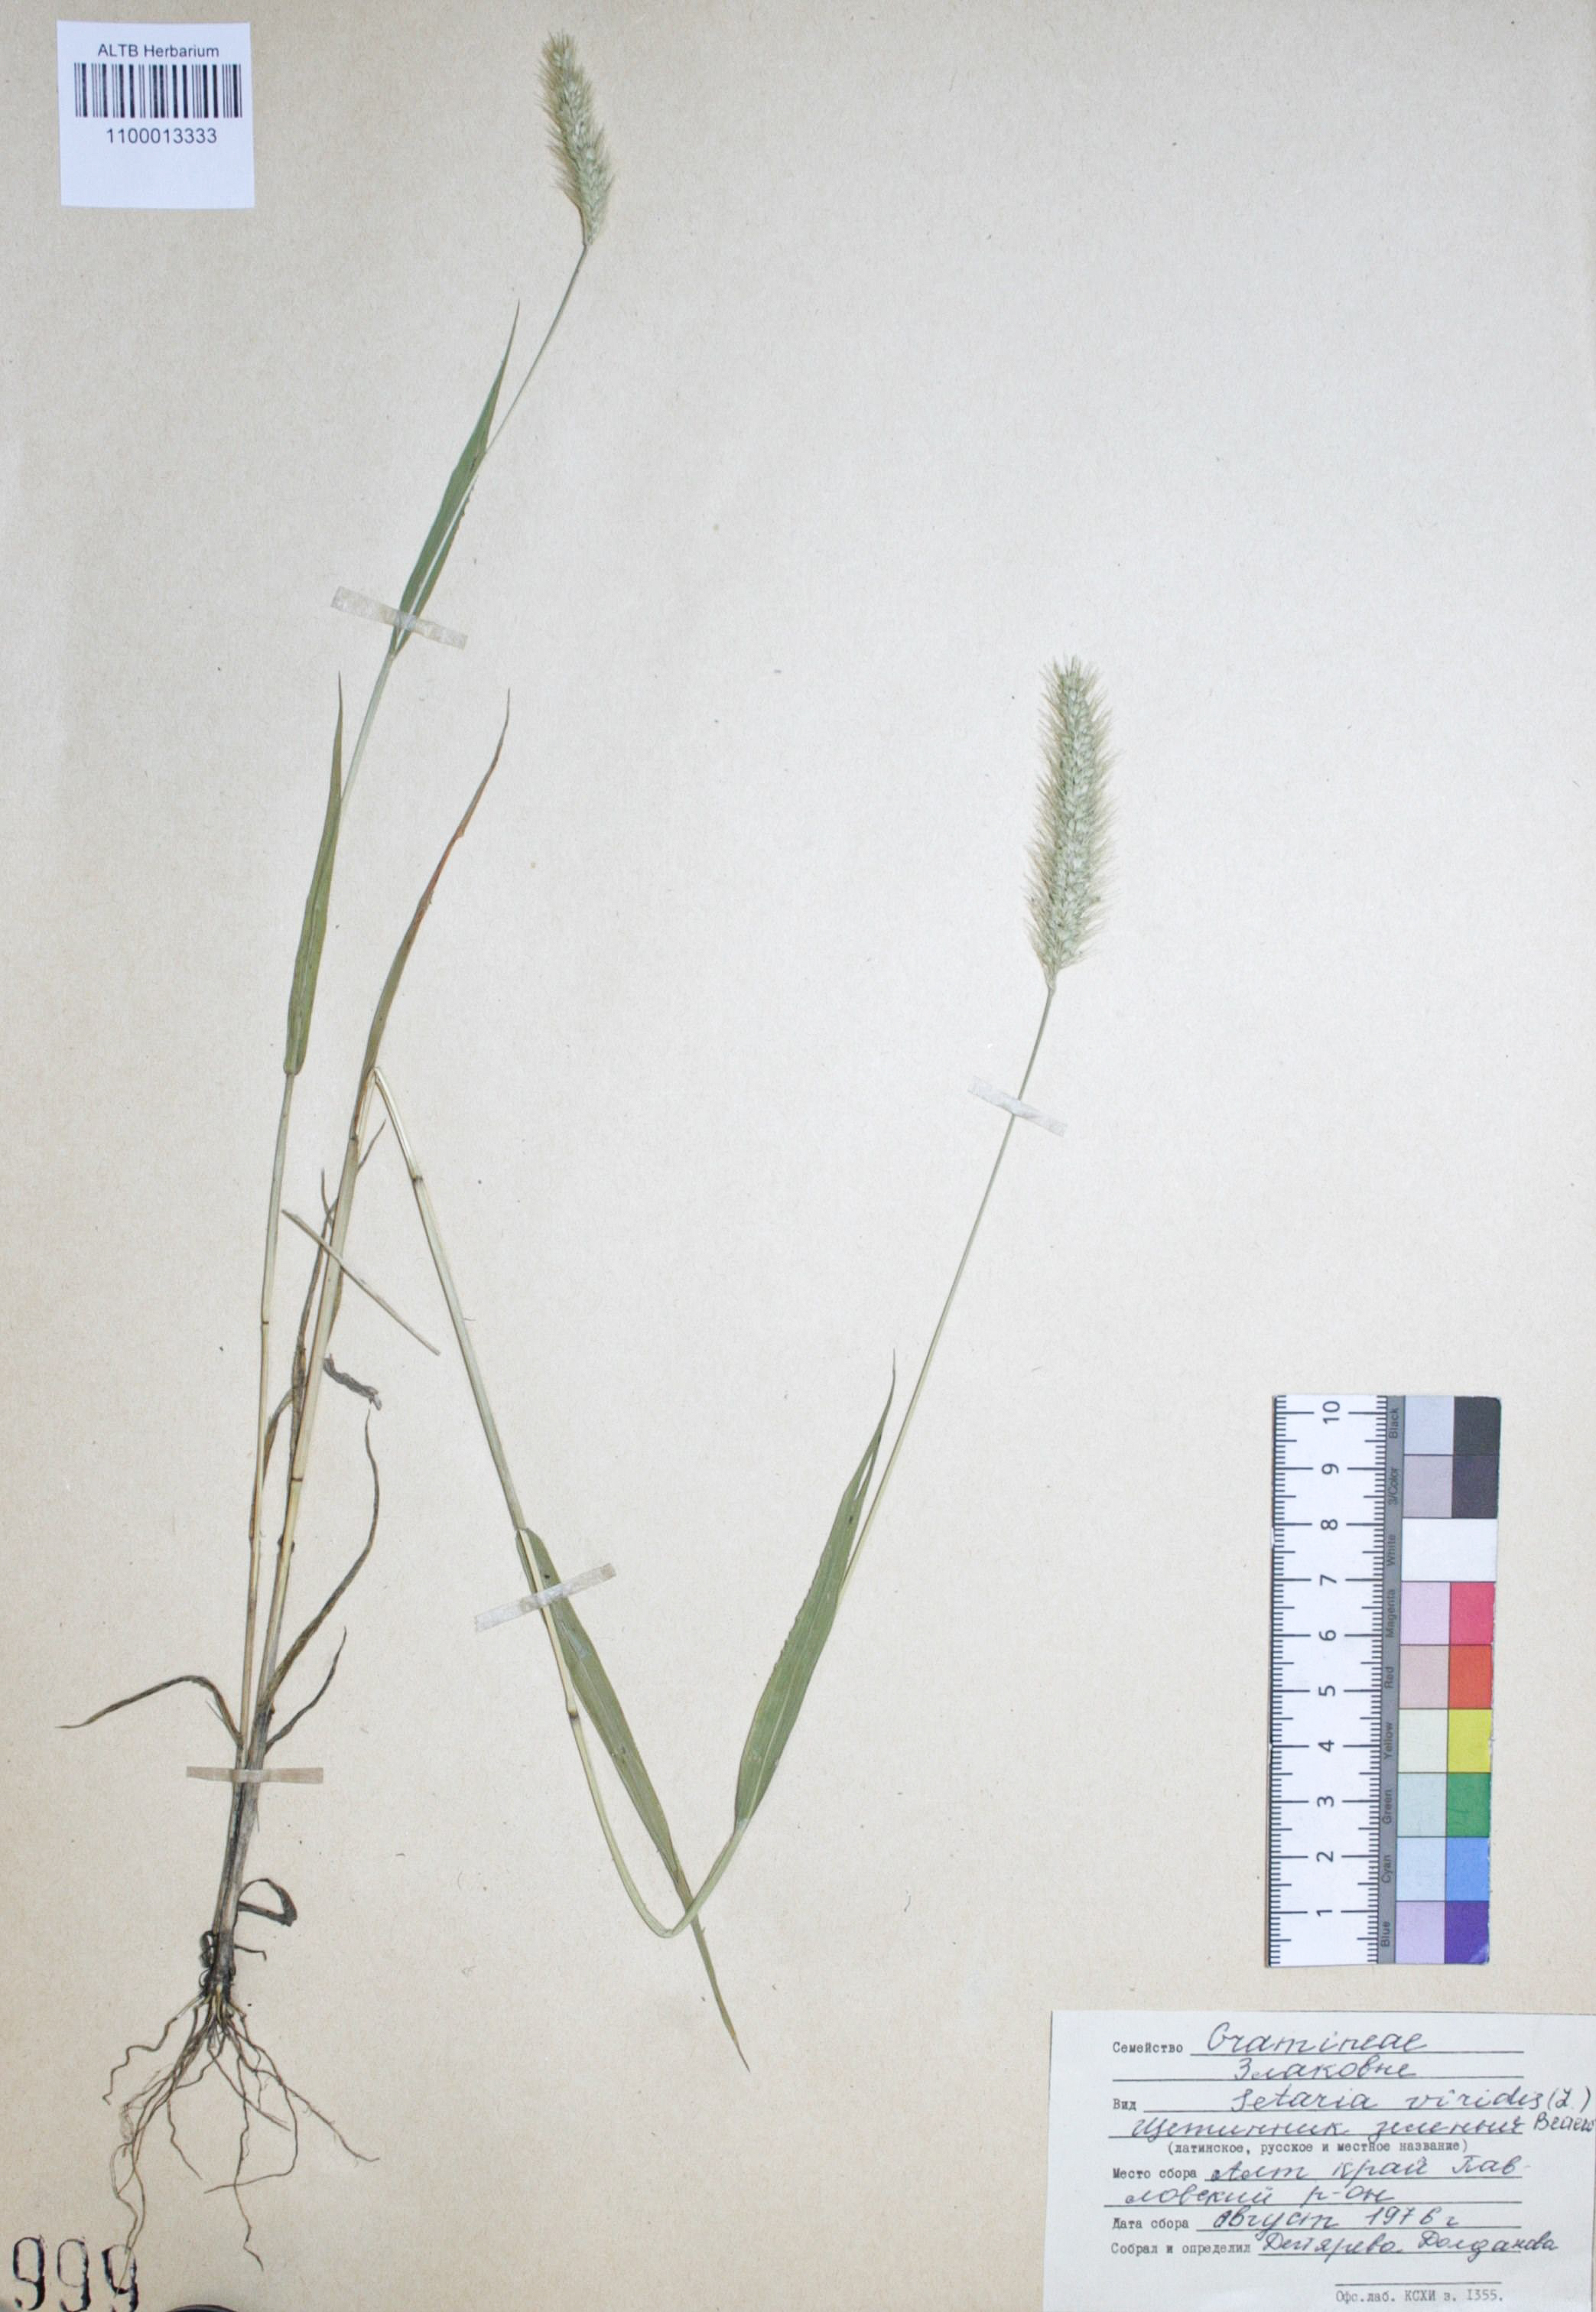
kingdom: Plantae
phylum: Tracheophyta
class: Liliopsida
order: Poales
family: Poaceae
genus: Setaria
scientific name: Setaria viridis
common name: Green bristlegrass
